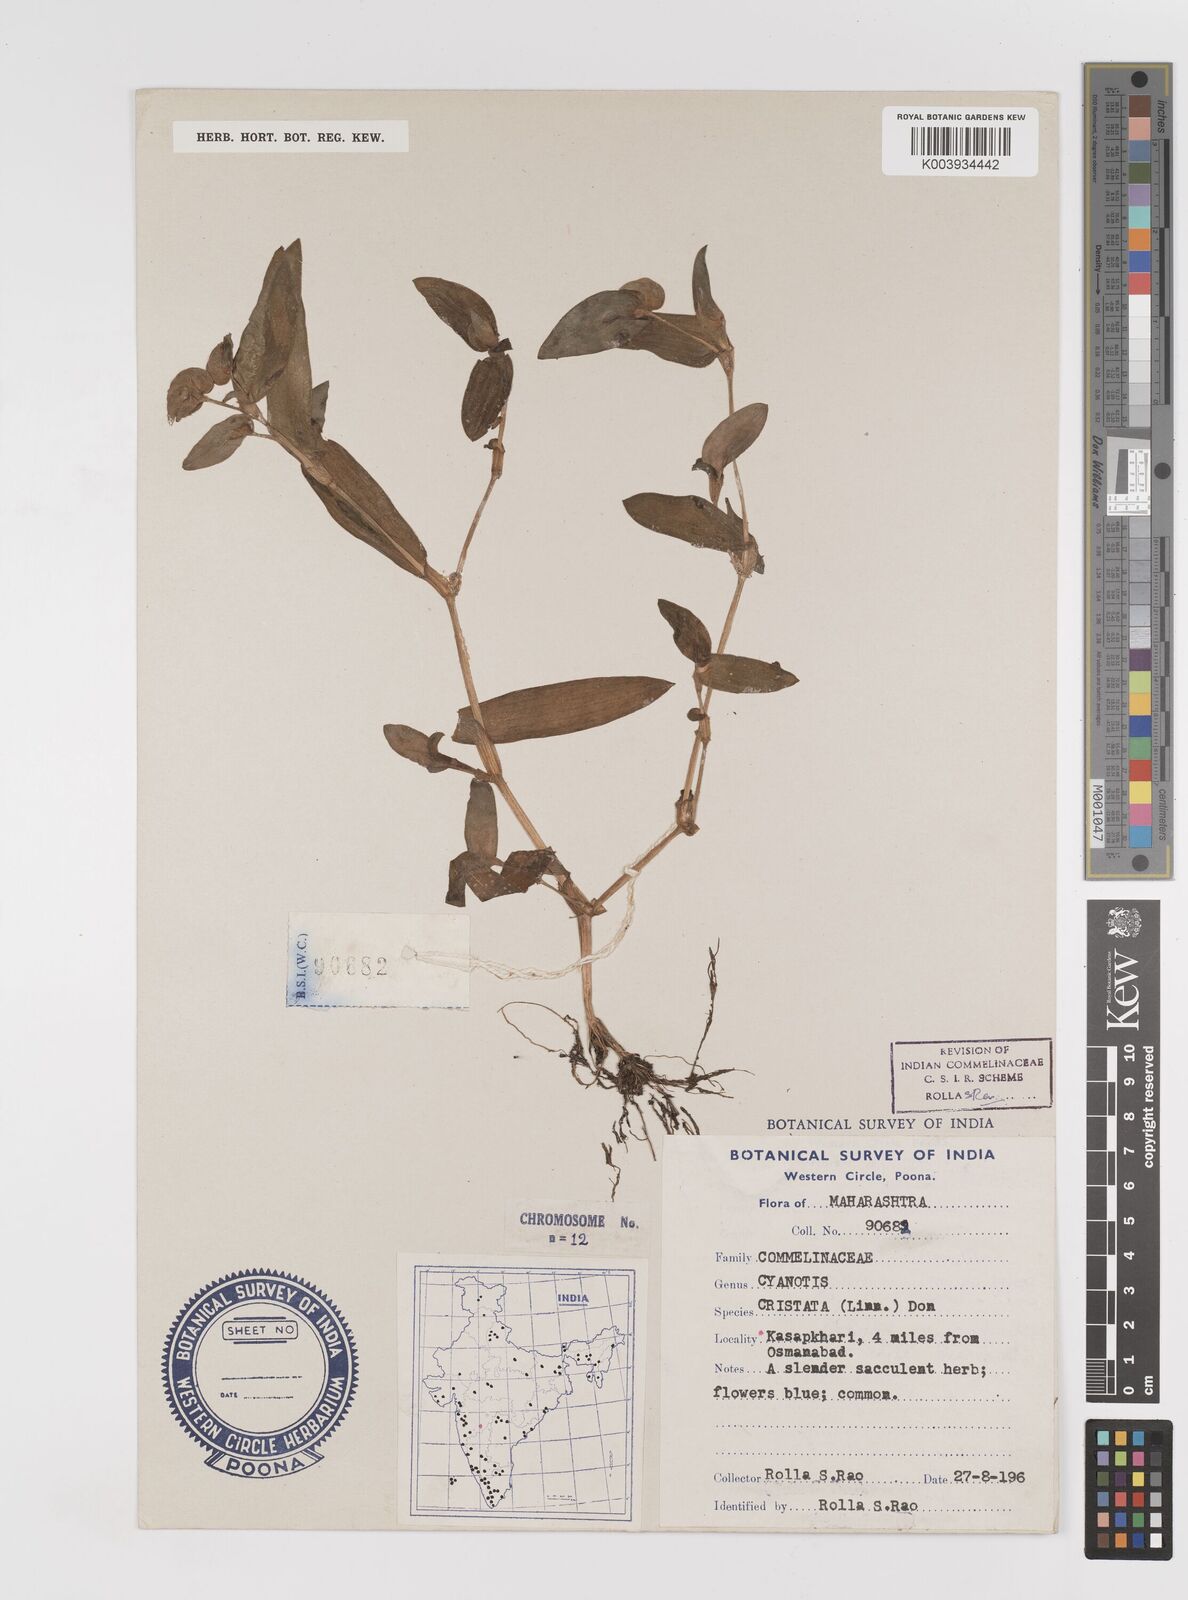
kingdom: Plantae
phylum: Tracheophyta
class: Liliopsida
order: Commelinales
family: Commelinaceae
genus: Cyanotis
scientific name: Cyanotis cristata
